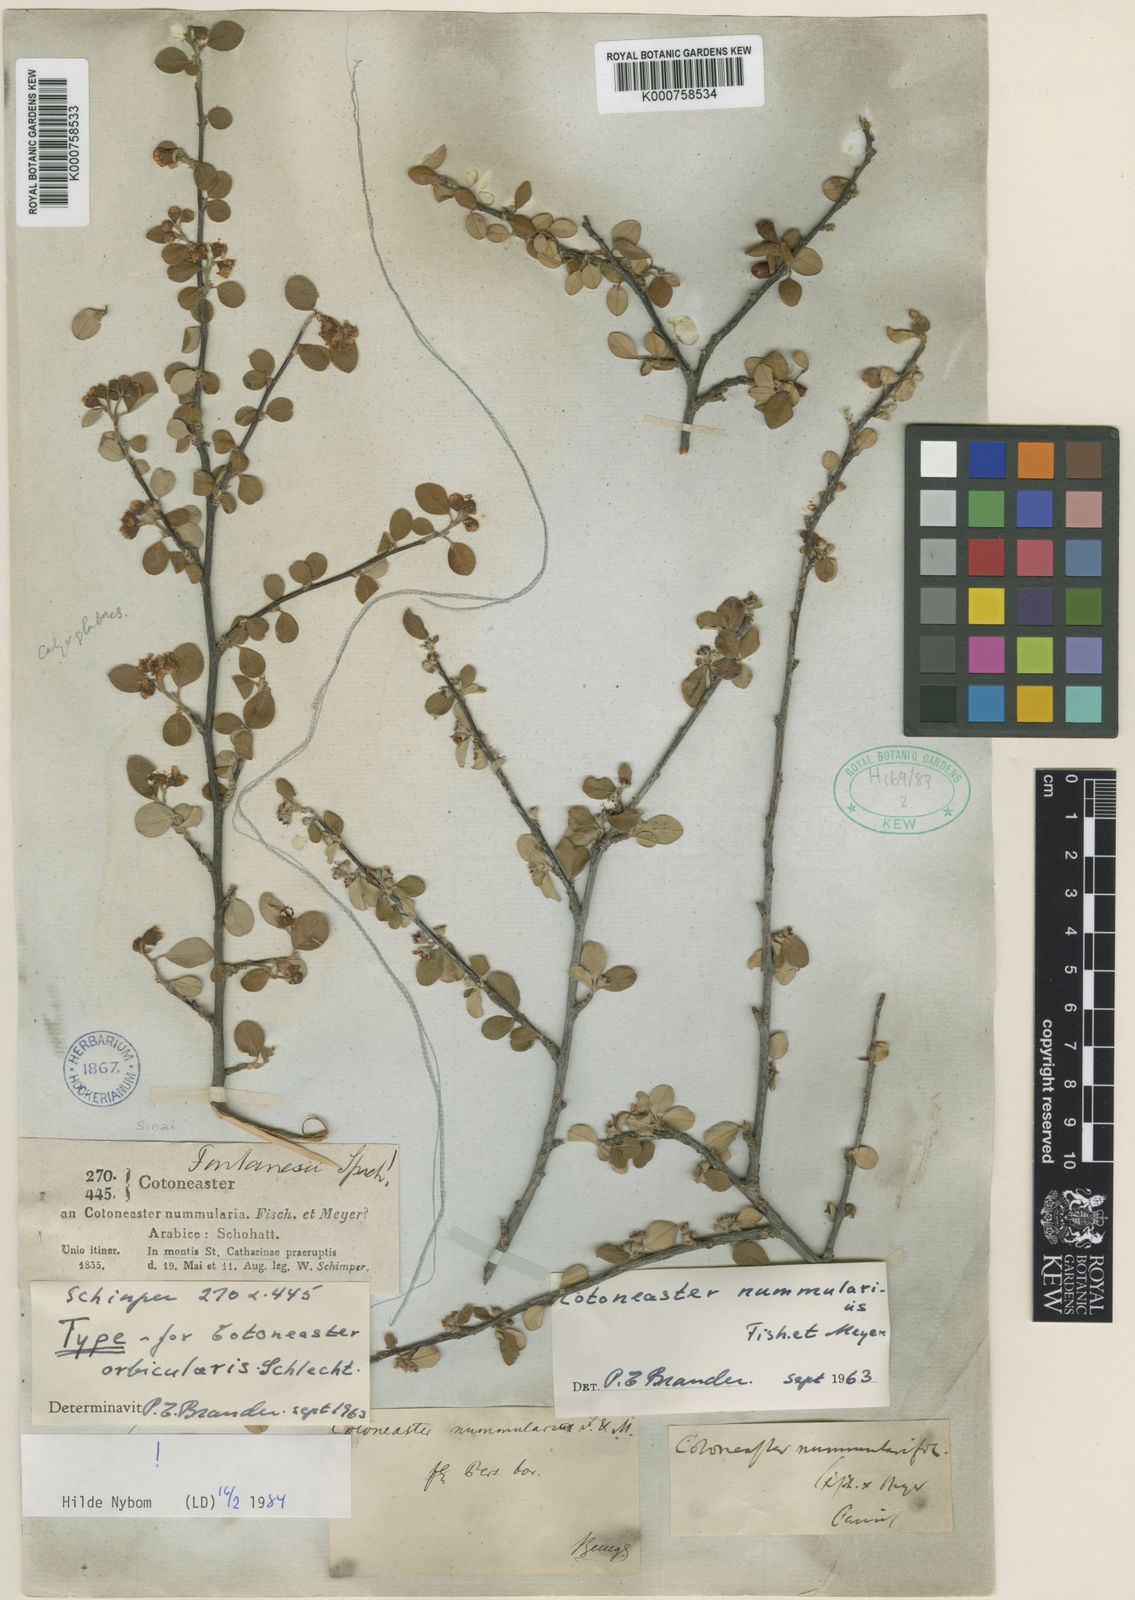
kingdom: Plantae
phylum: Tracheophyta
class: Magnoliopsida
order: Rosales
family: Rosaceae
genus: Cotoneaster
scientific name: Cotoneaster orbicularis
